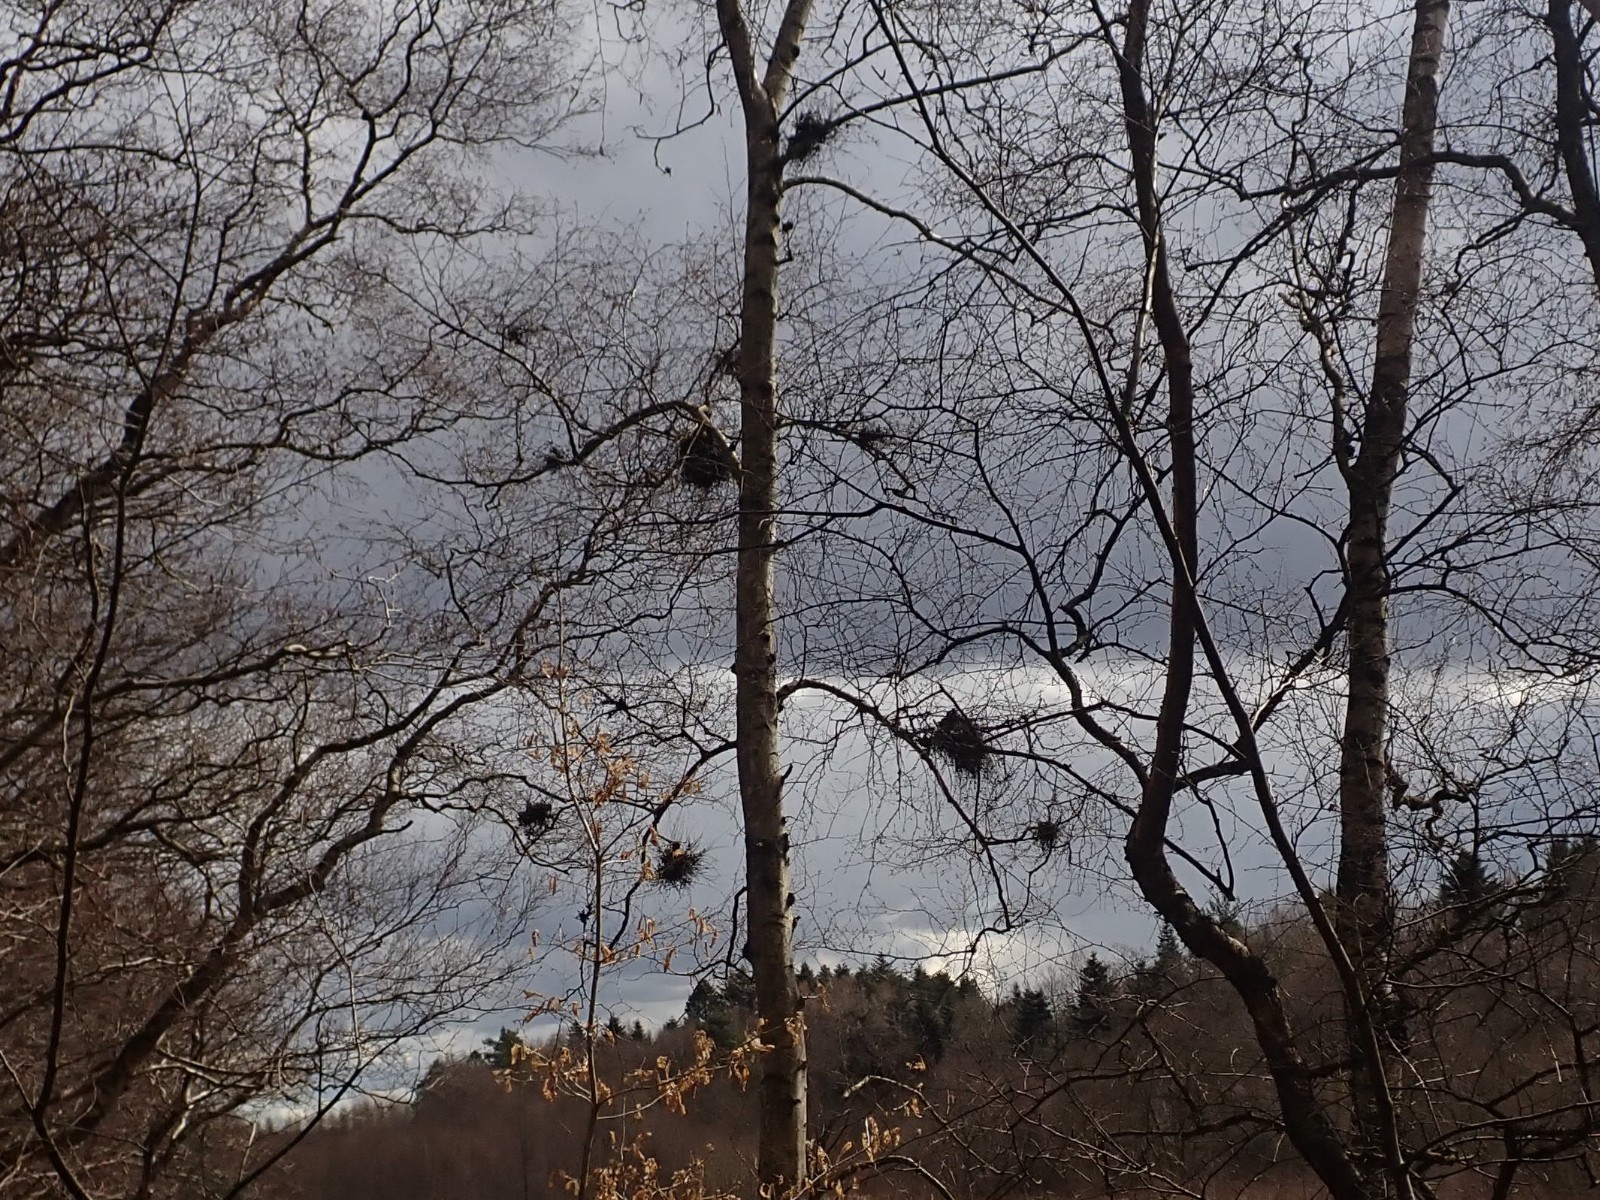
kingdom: Fungi
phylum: Ascomycota
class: Taphrinomycetes
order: Taphrinales
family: Taphrinaceae
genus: Taphrina
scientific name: Taphrina betulina
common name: hekse-sækdug
